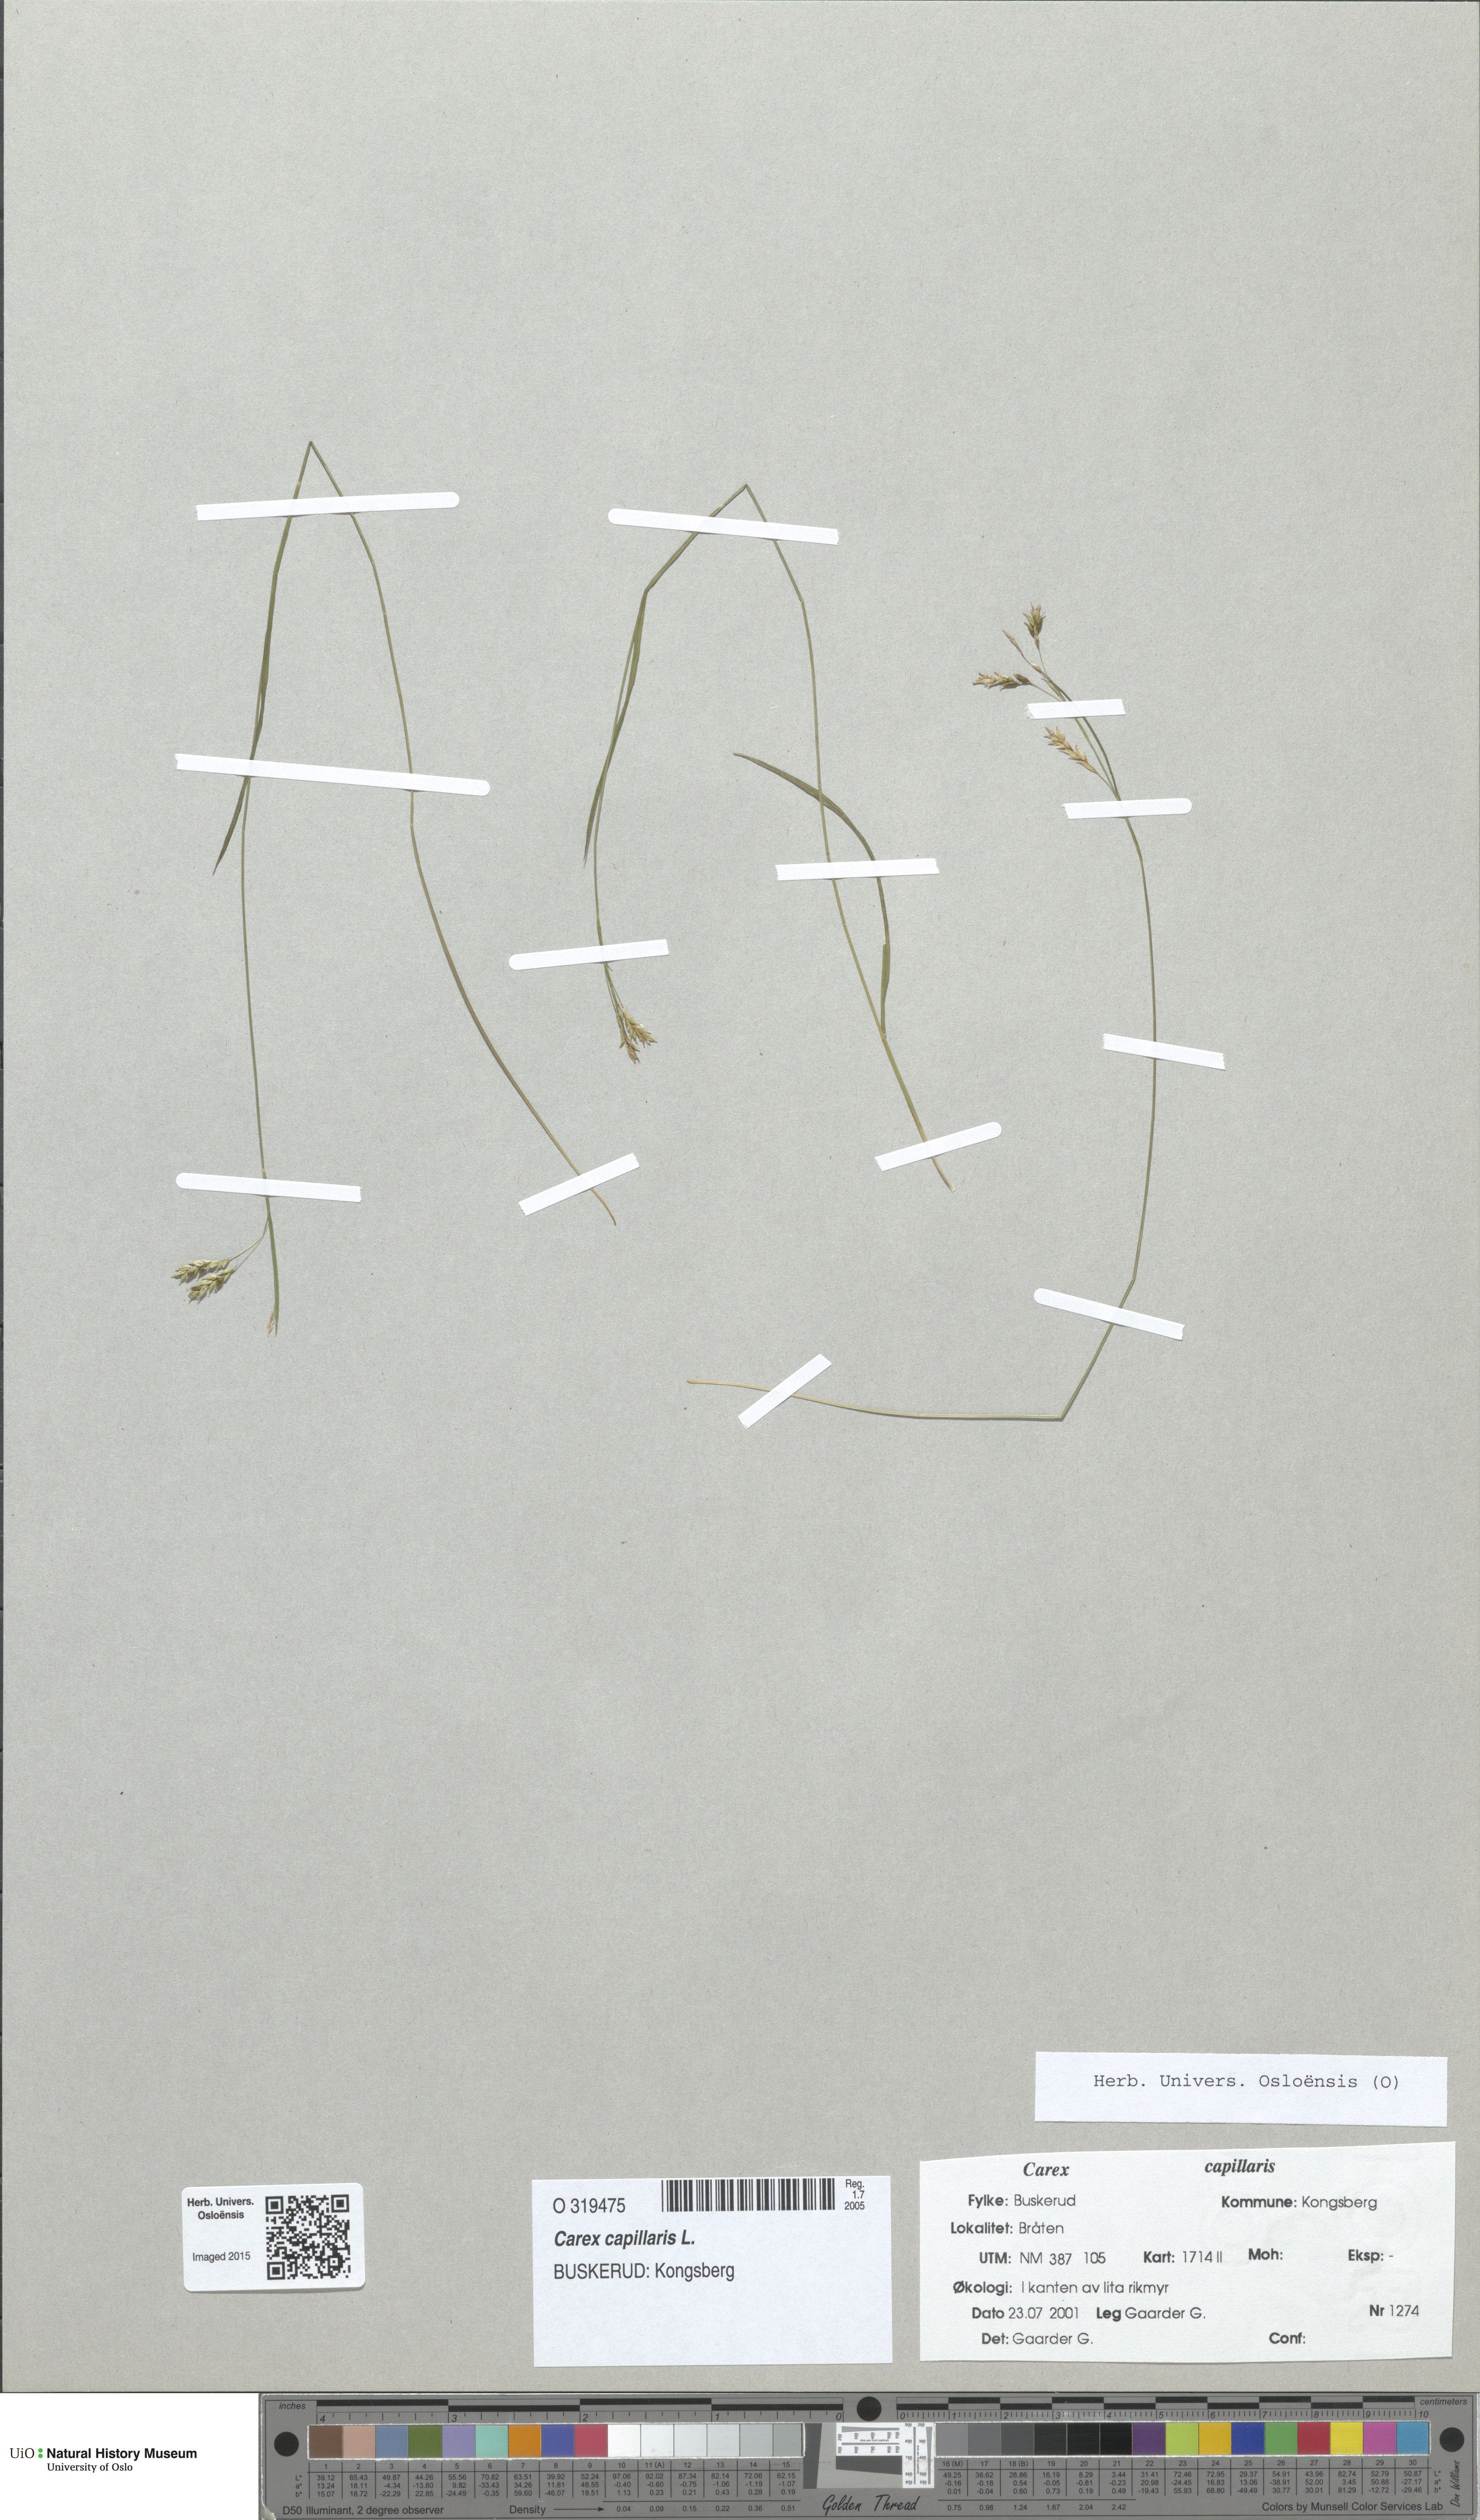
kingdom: Plantae
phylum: Tracheophyta
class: Liliopsida
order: Poales
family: Cyperaceae
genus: Carex
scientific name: Carex capillaris
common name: Hair sedge
